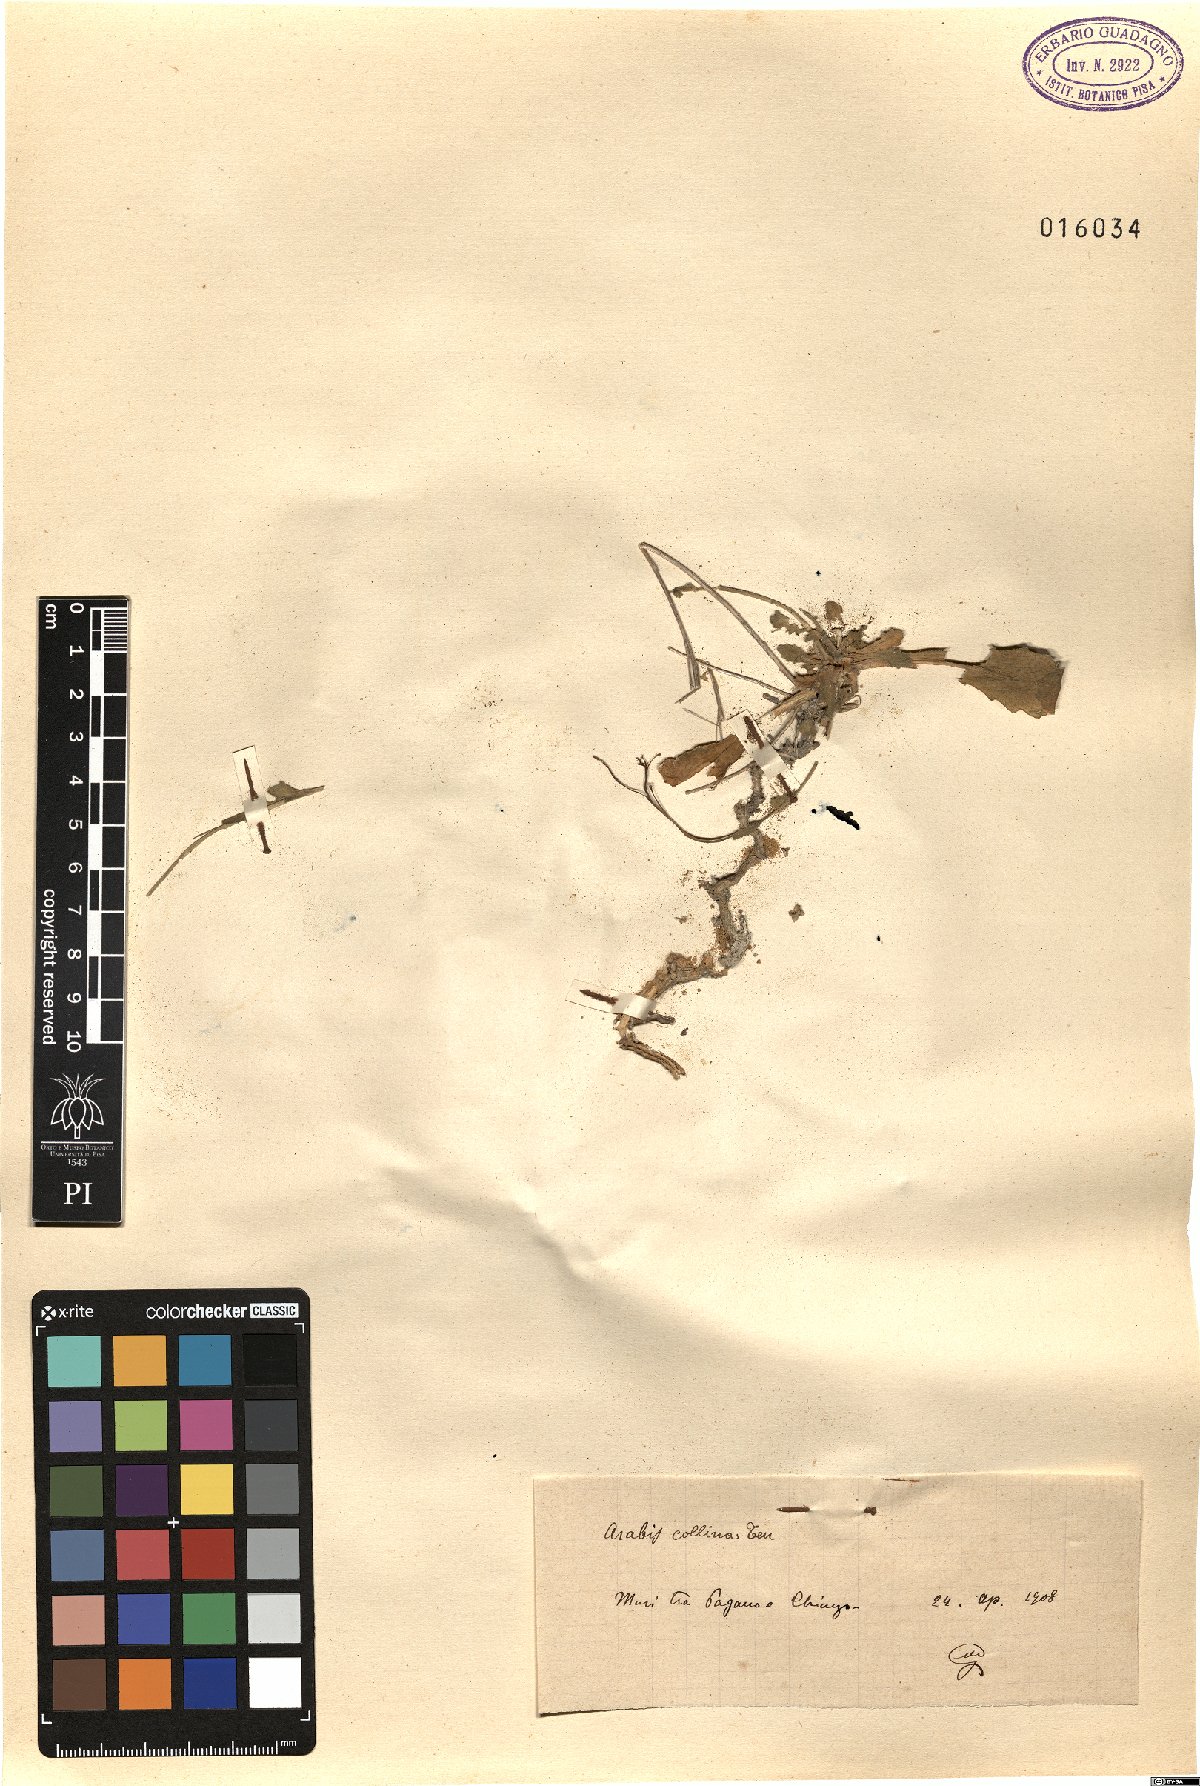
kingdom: Plantae
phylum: Tracheophyta
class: Magnoliopsida
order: Brassicales
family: Brassicaceae
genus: Arabis
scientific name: Arabis collina
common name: Rosy cress
